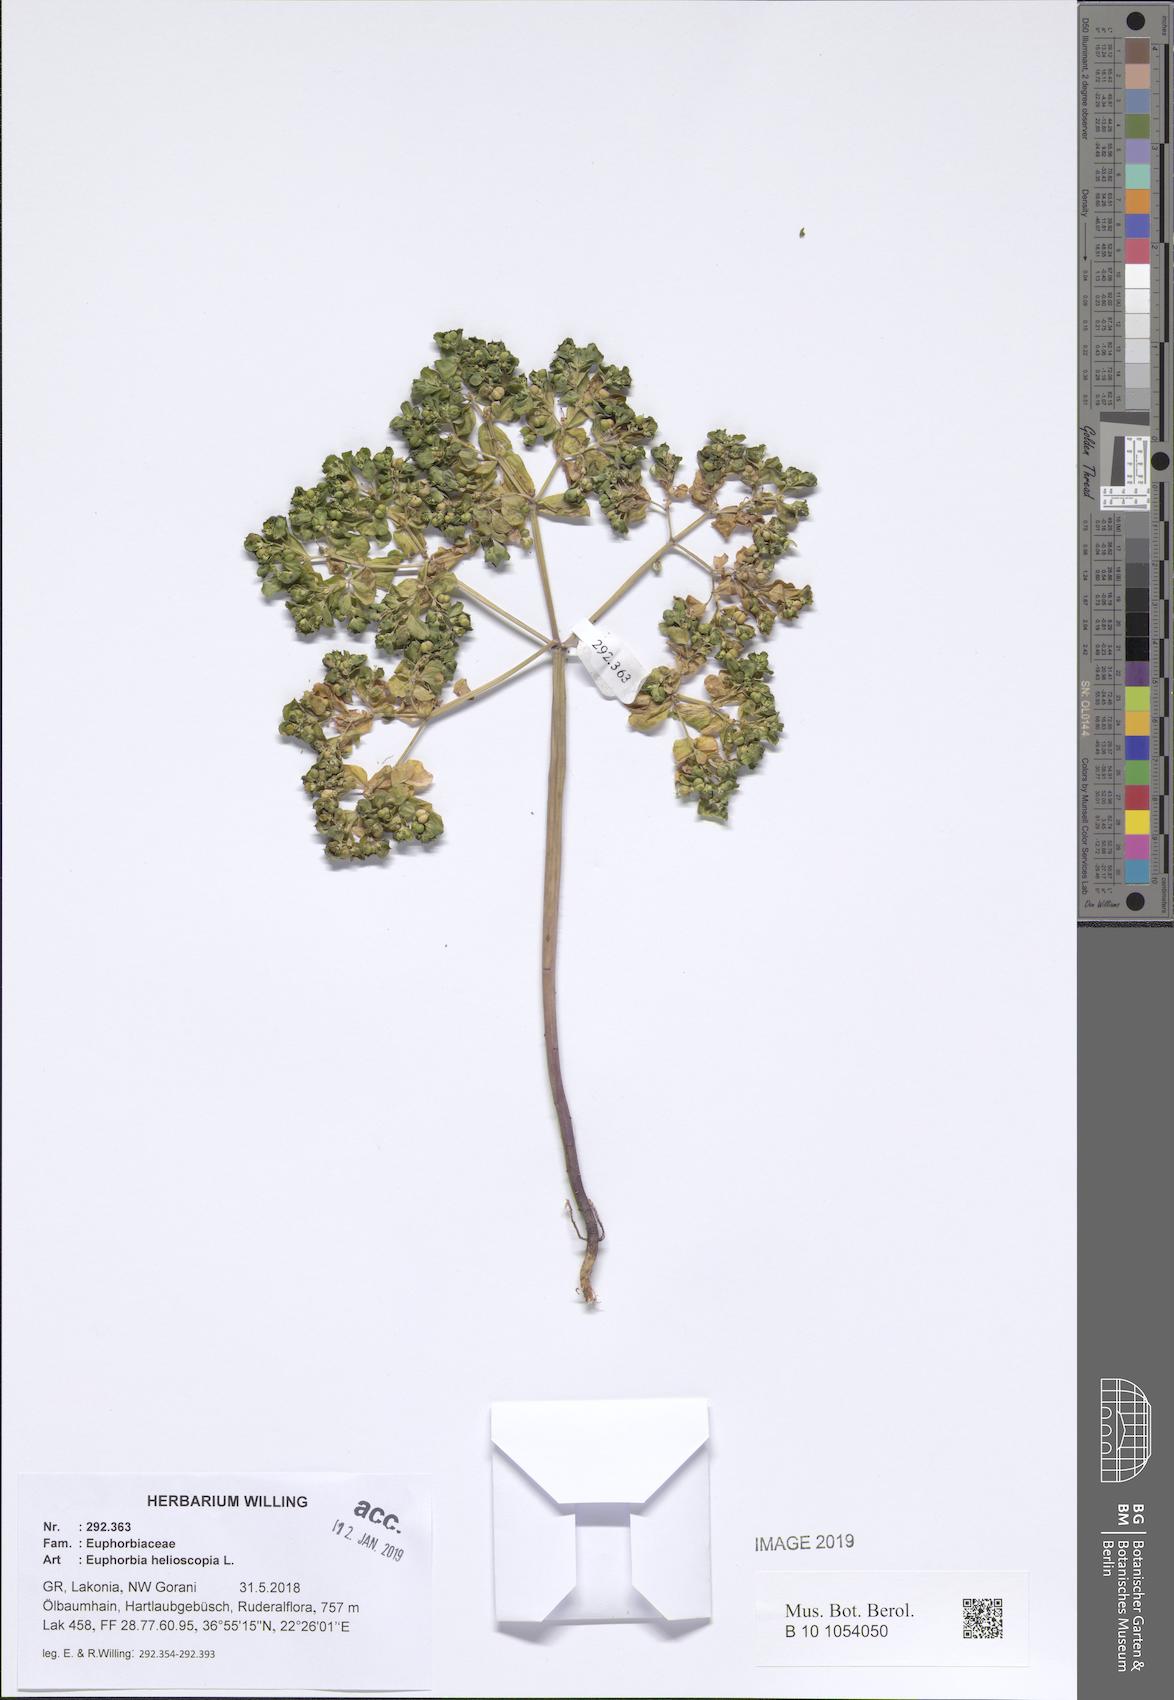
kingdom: Plantae
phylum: Tracheophyta
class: Magnoliopsida
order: Malpighiales
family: Euphorbiaceae
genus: Euphorbia
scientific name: Euphorbia helioscopia
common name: Sun spurge
